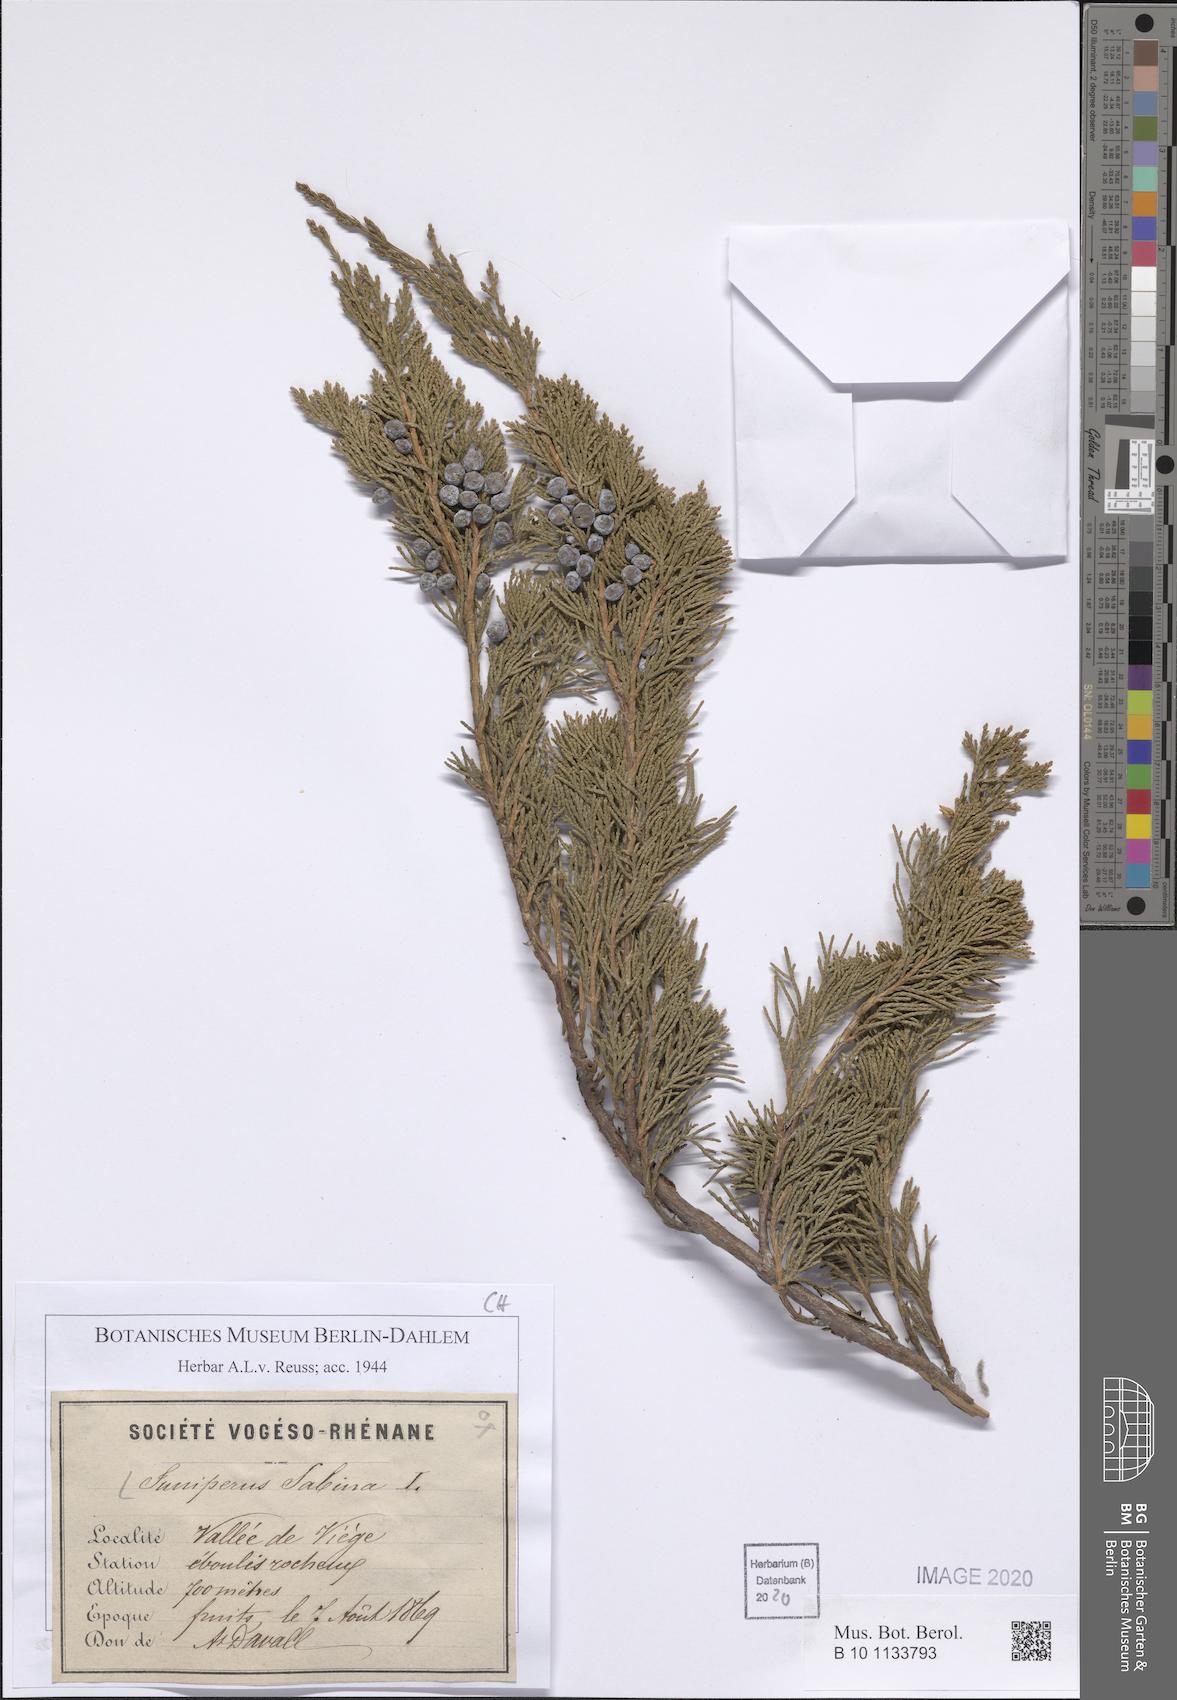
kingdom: Plantae
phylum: Tracheophyta
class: Pinopsida
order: Pinales
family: Cupressaceae
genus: Juniperus
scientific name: Juniperus sabina
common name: Savin
